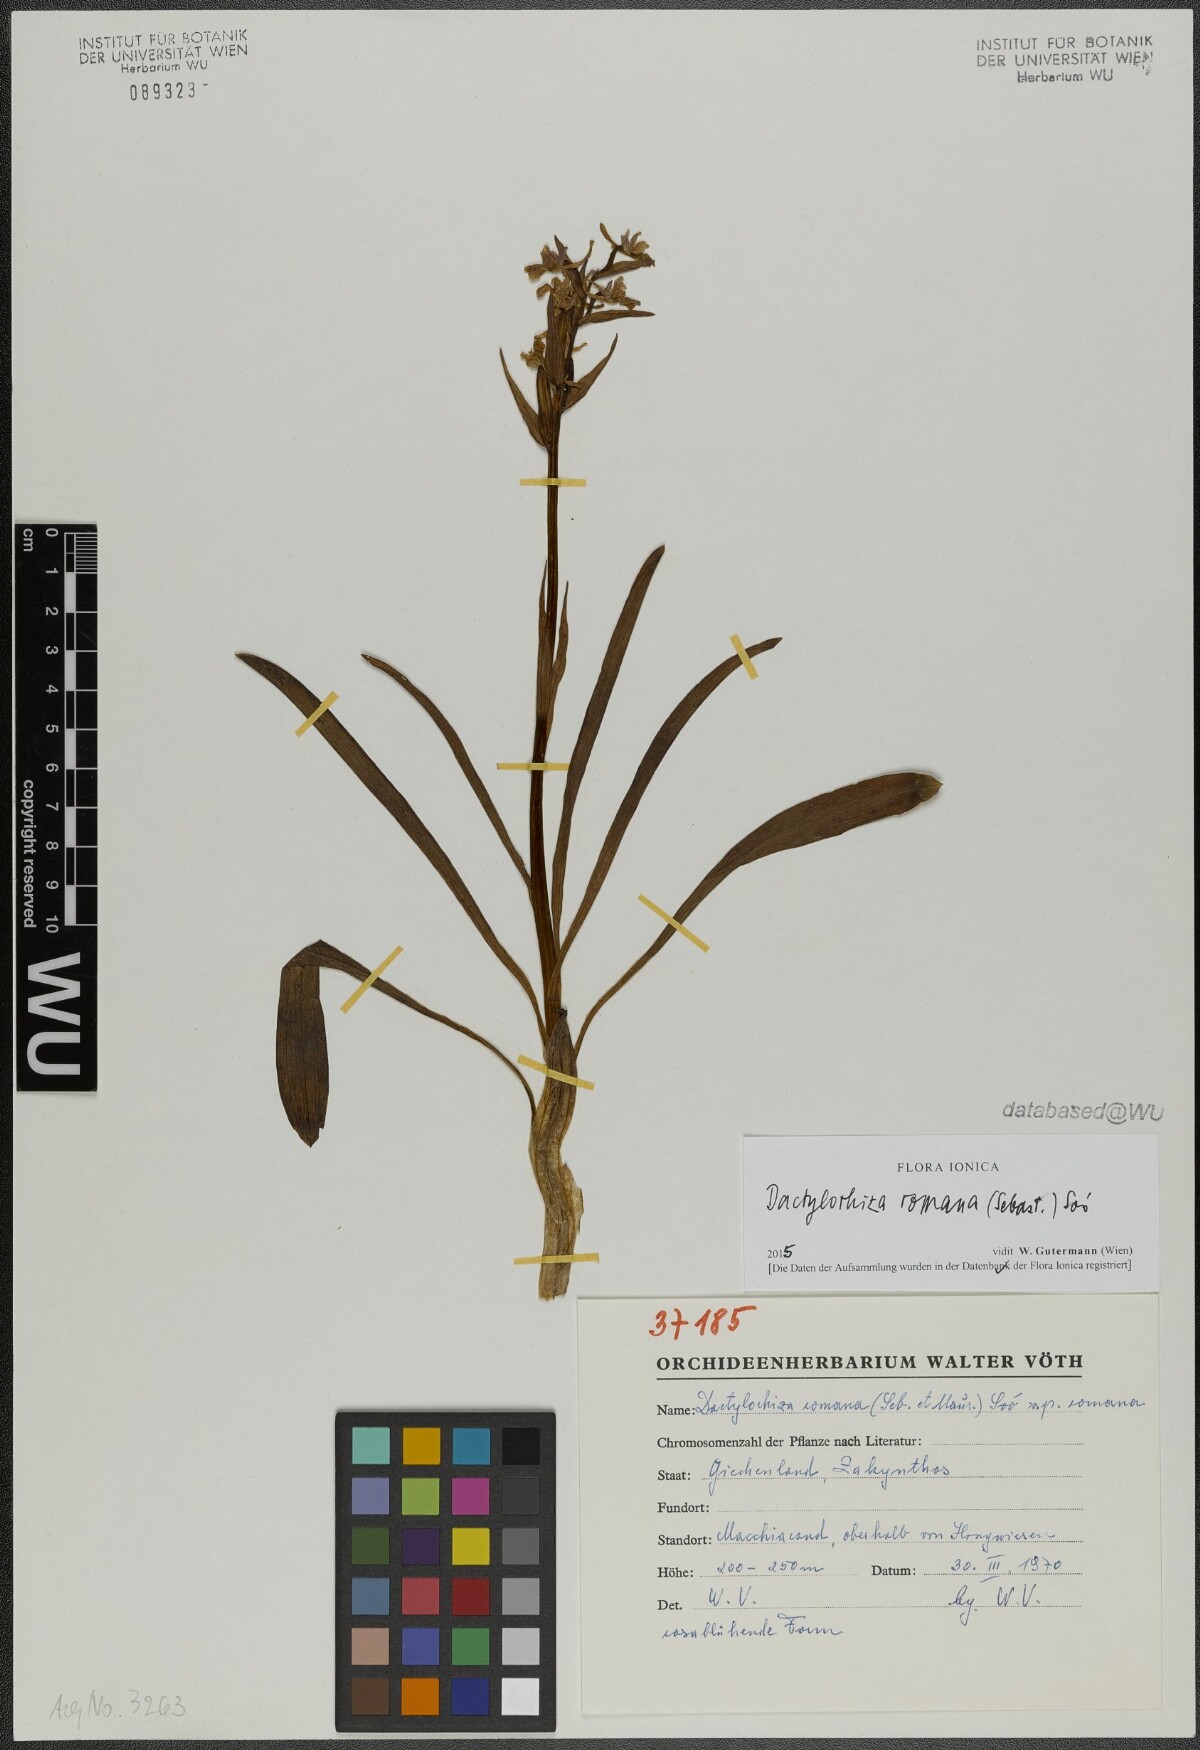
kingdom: Plantae
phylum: Tracheophyta
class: Liliopsida
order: Asparagales
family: Orchidaceae
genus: Dactylorhiza
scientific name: Dactylorhiza romana
